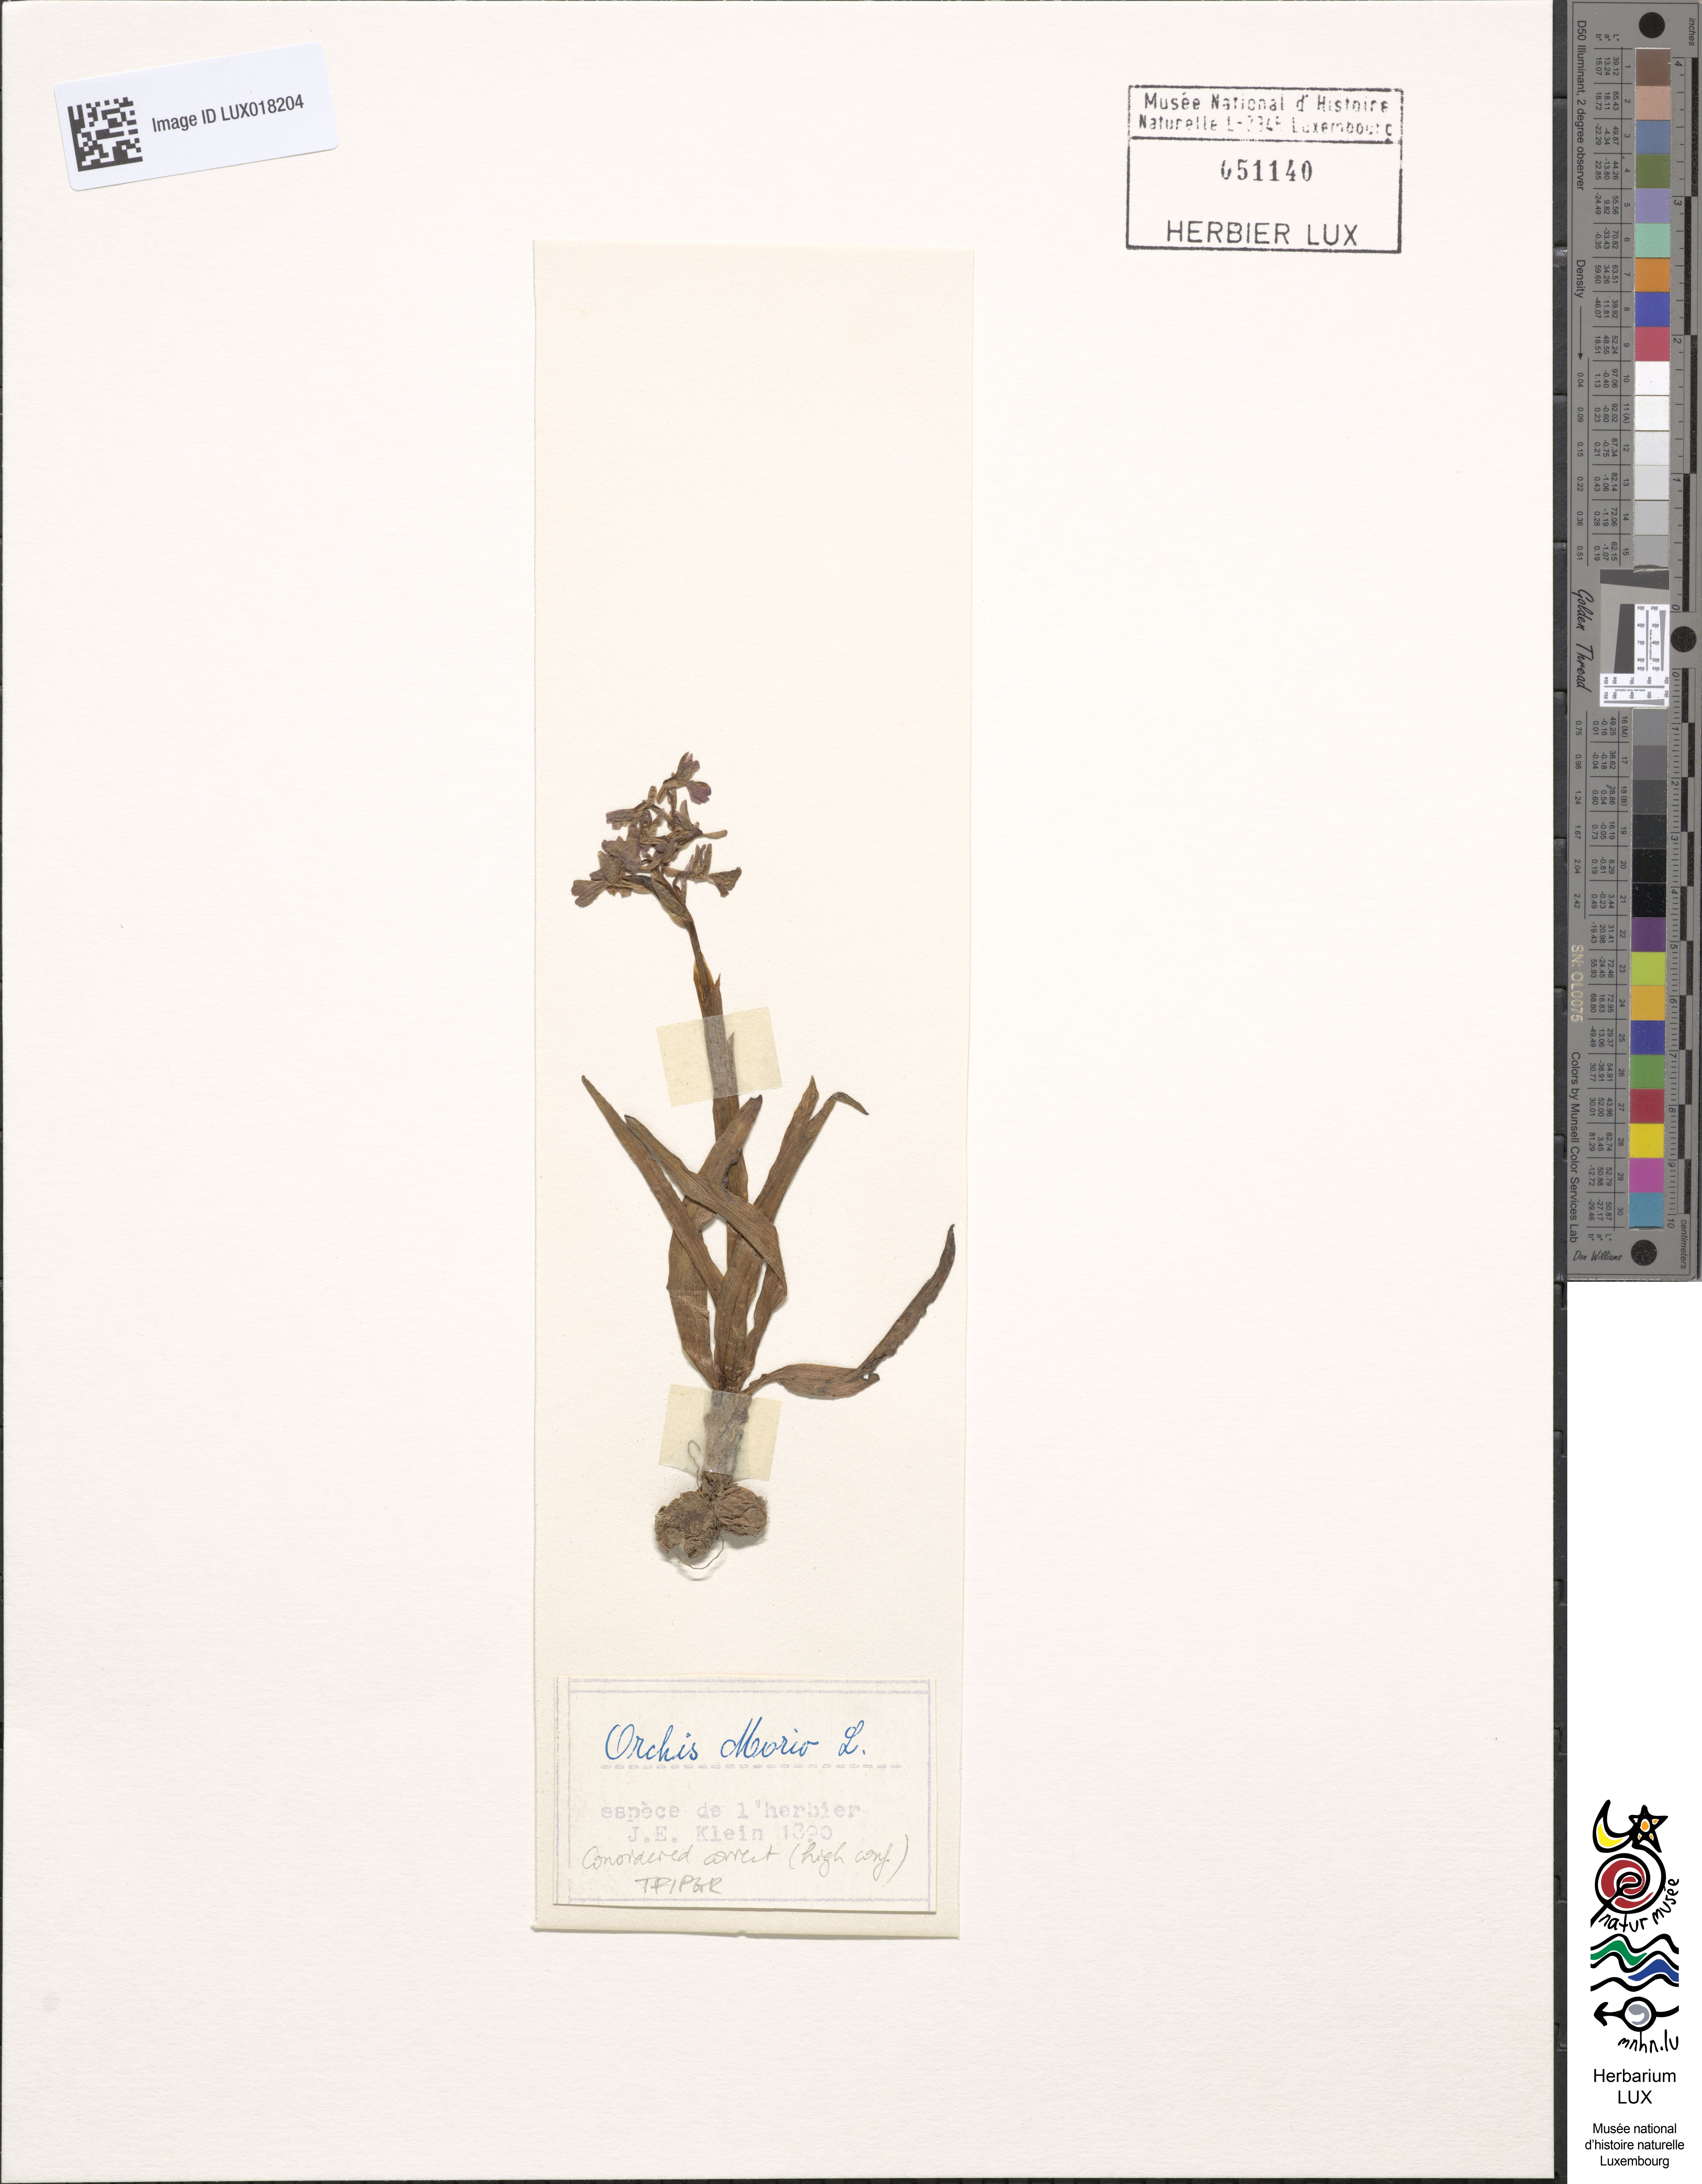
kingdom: Plantae
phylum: Tracheophyta
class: Liliopsida
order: Asparagales
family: Orchidaceae
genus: Anacamptis
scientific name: Anacamptis morio
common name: Green-winged orchid
